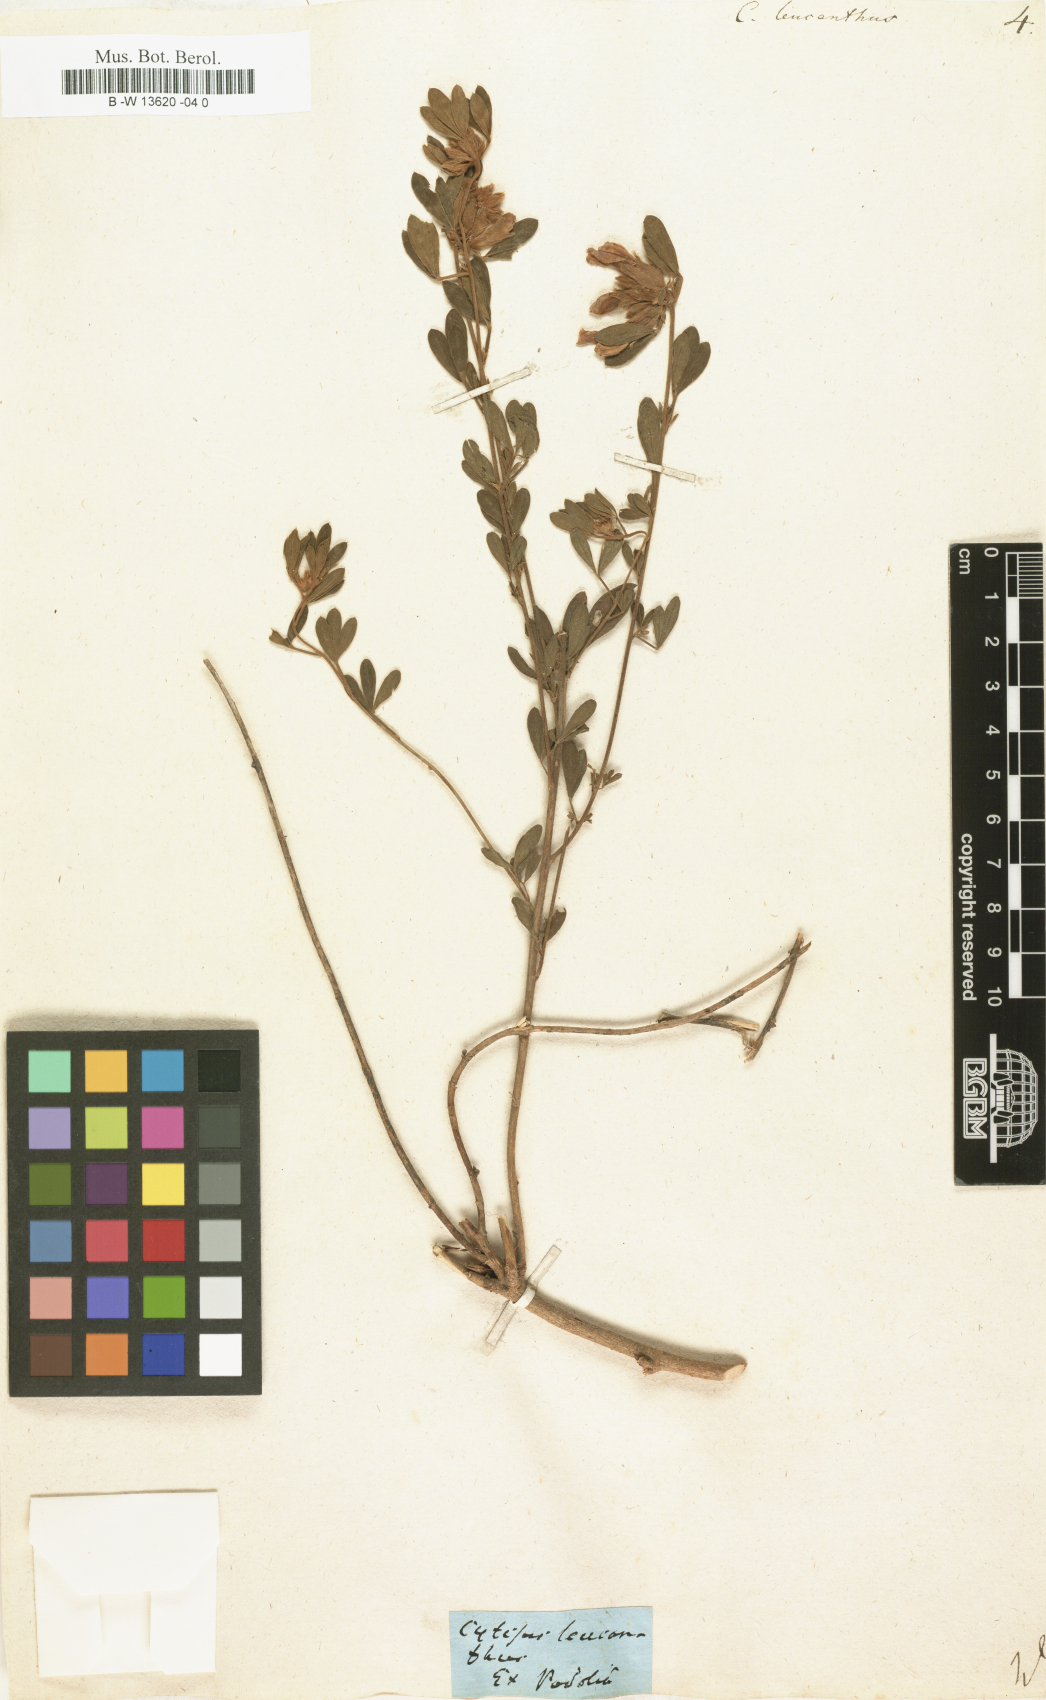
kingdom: Plantae
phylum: Tracheophyta
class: Magnoliopsida
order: Fabales
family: Fabaceae
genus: Chamaecytisus
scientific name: Chamaecytisus albus
